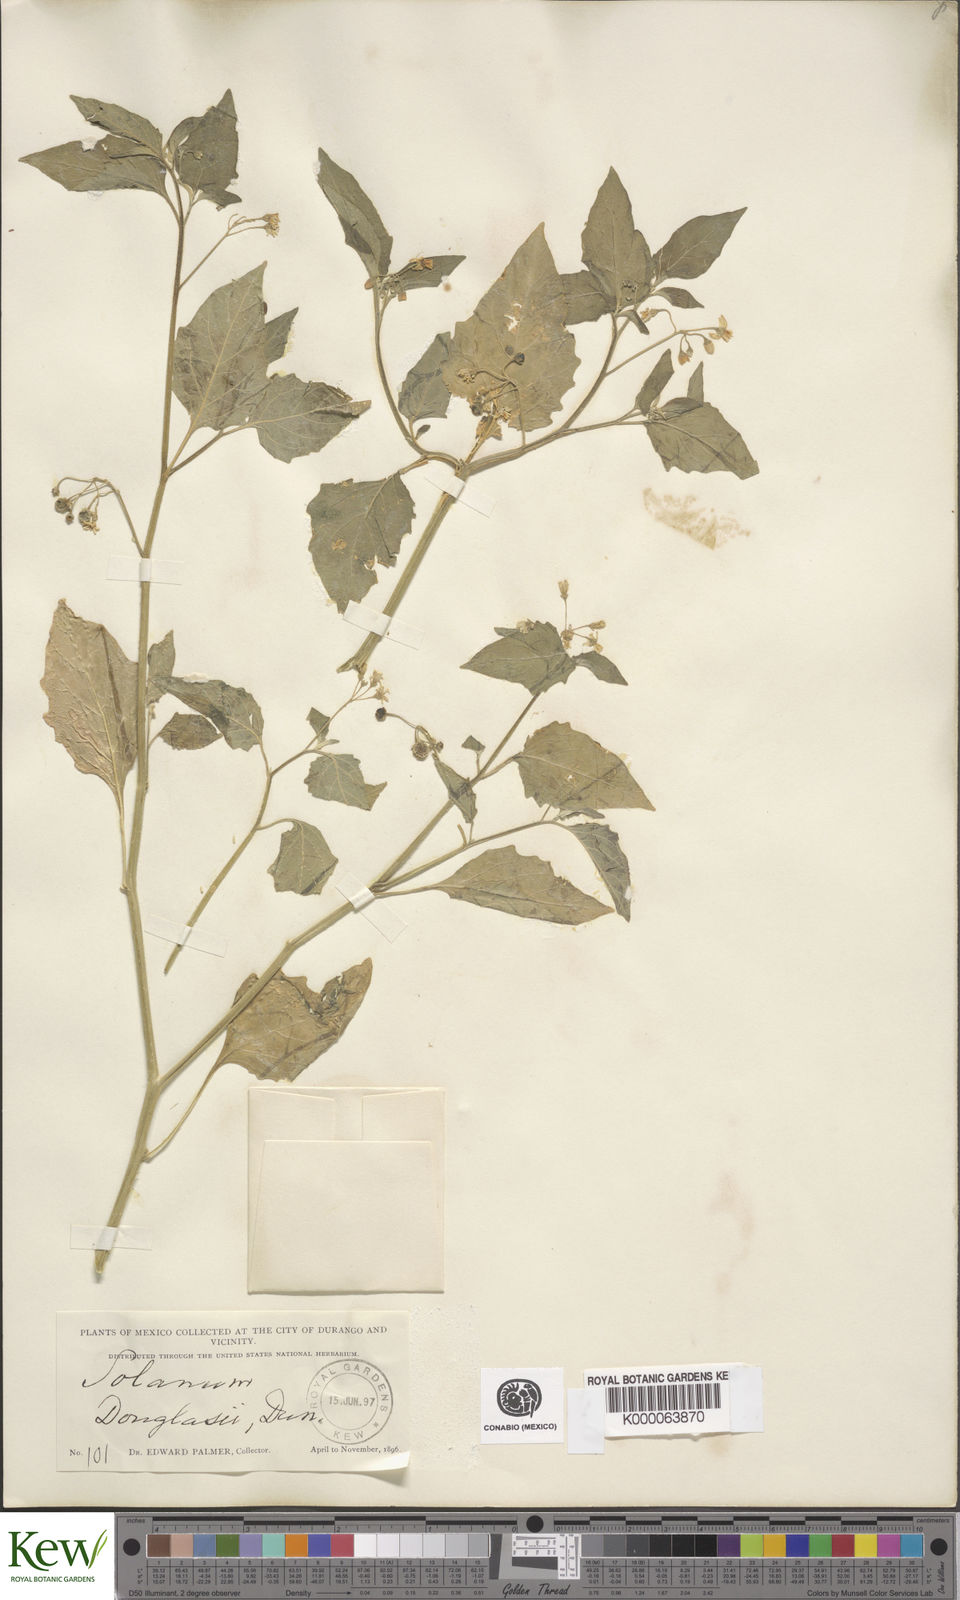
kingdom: Plantae
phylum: Tracheophyta
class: Magnoliopsida
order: Solanales
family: Solanaceae
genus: Solanum
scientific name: Solanum nigrescens
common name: Divine nightshade
